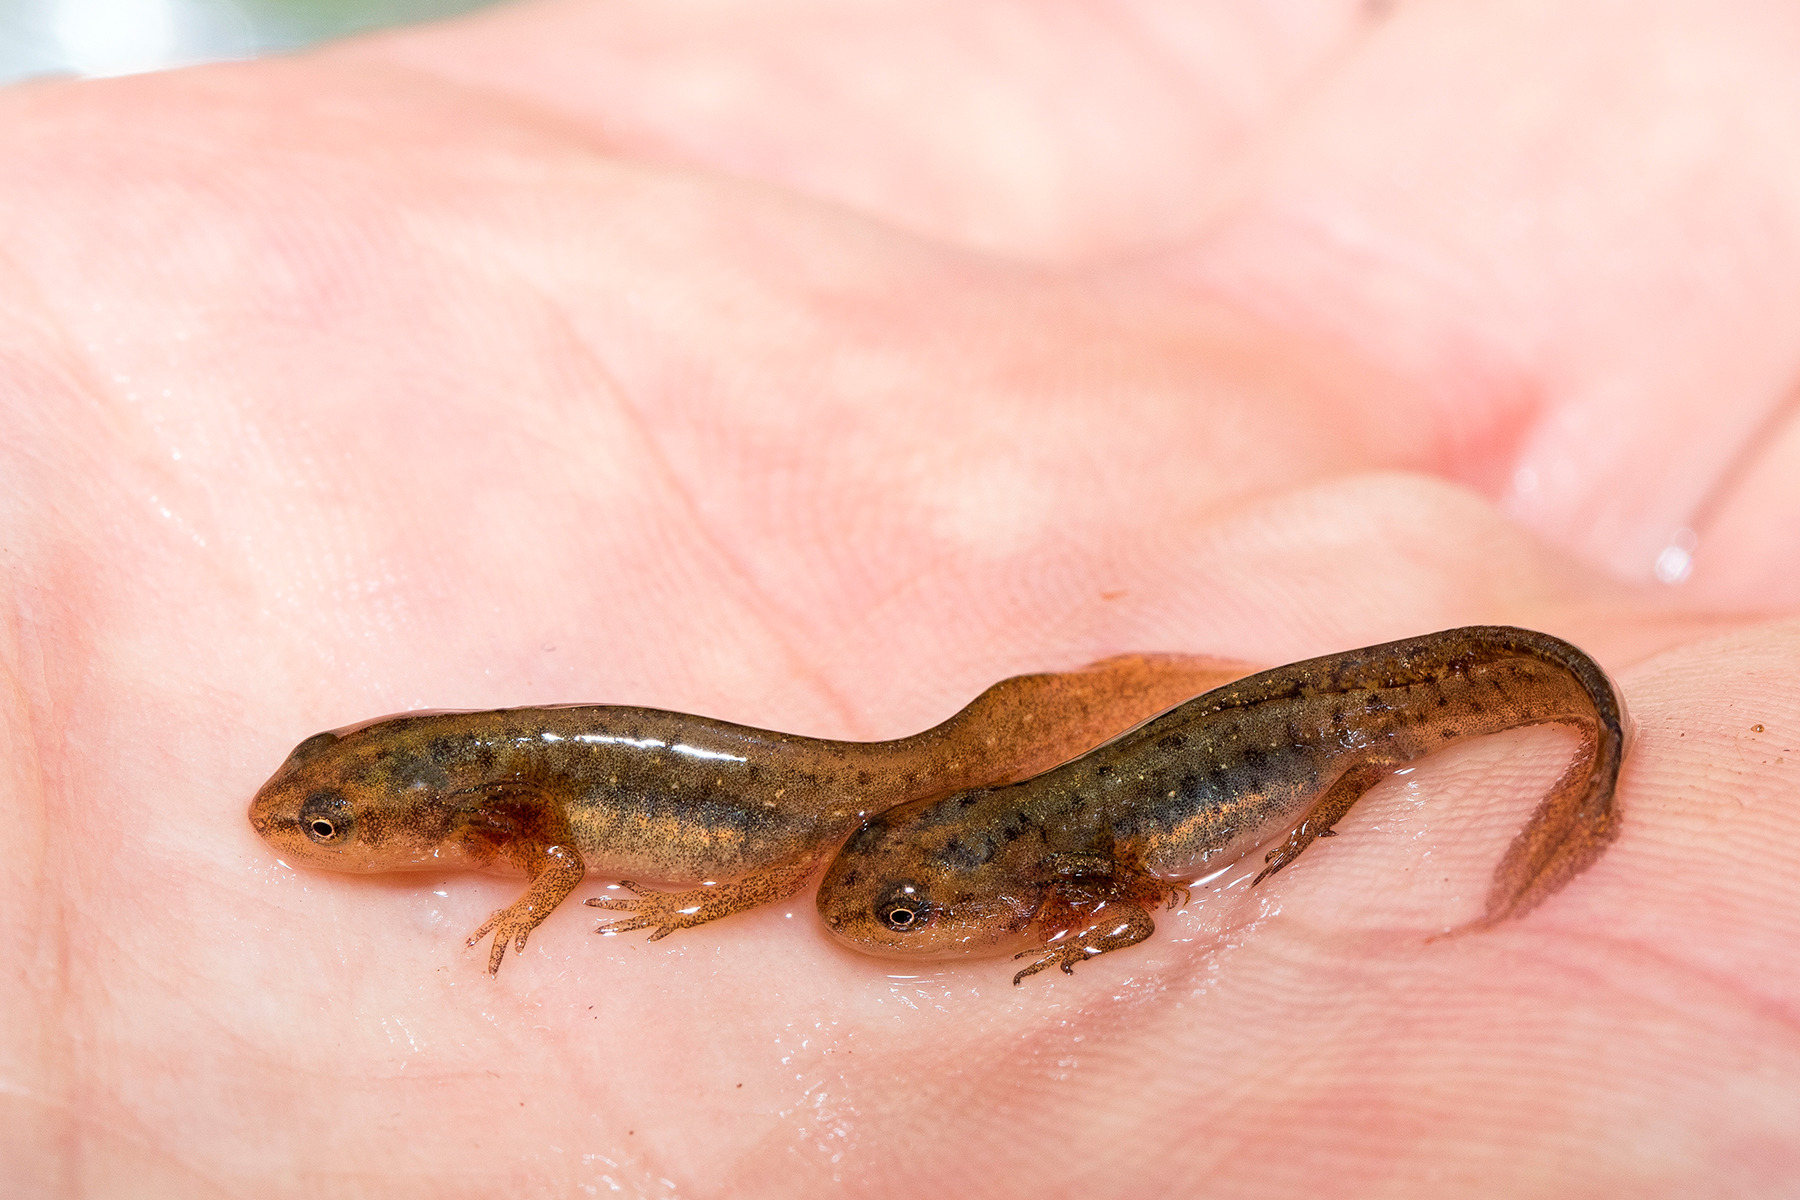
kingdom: Animalia
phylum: Chordata
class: Amphibia
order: Caudata
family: Salamandridae
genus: Lissotriton
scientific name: Lissotriton vulgaris
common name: Lille vandsalamander
